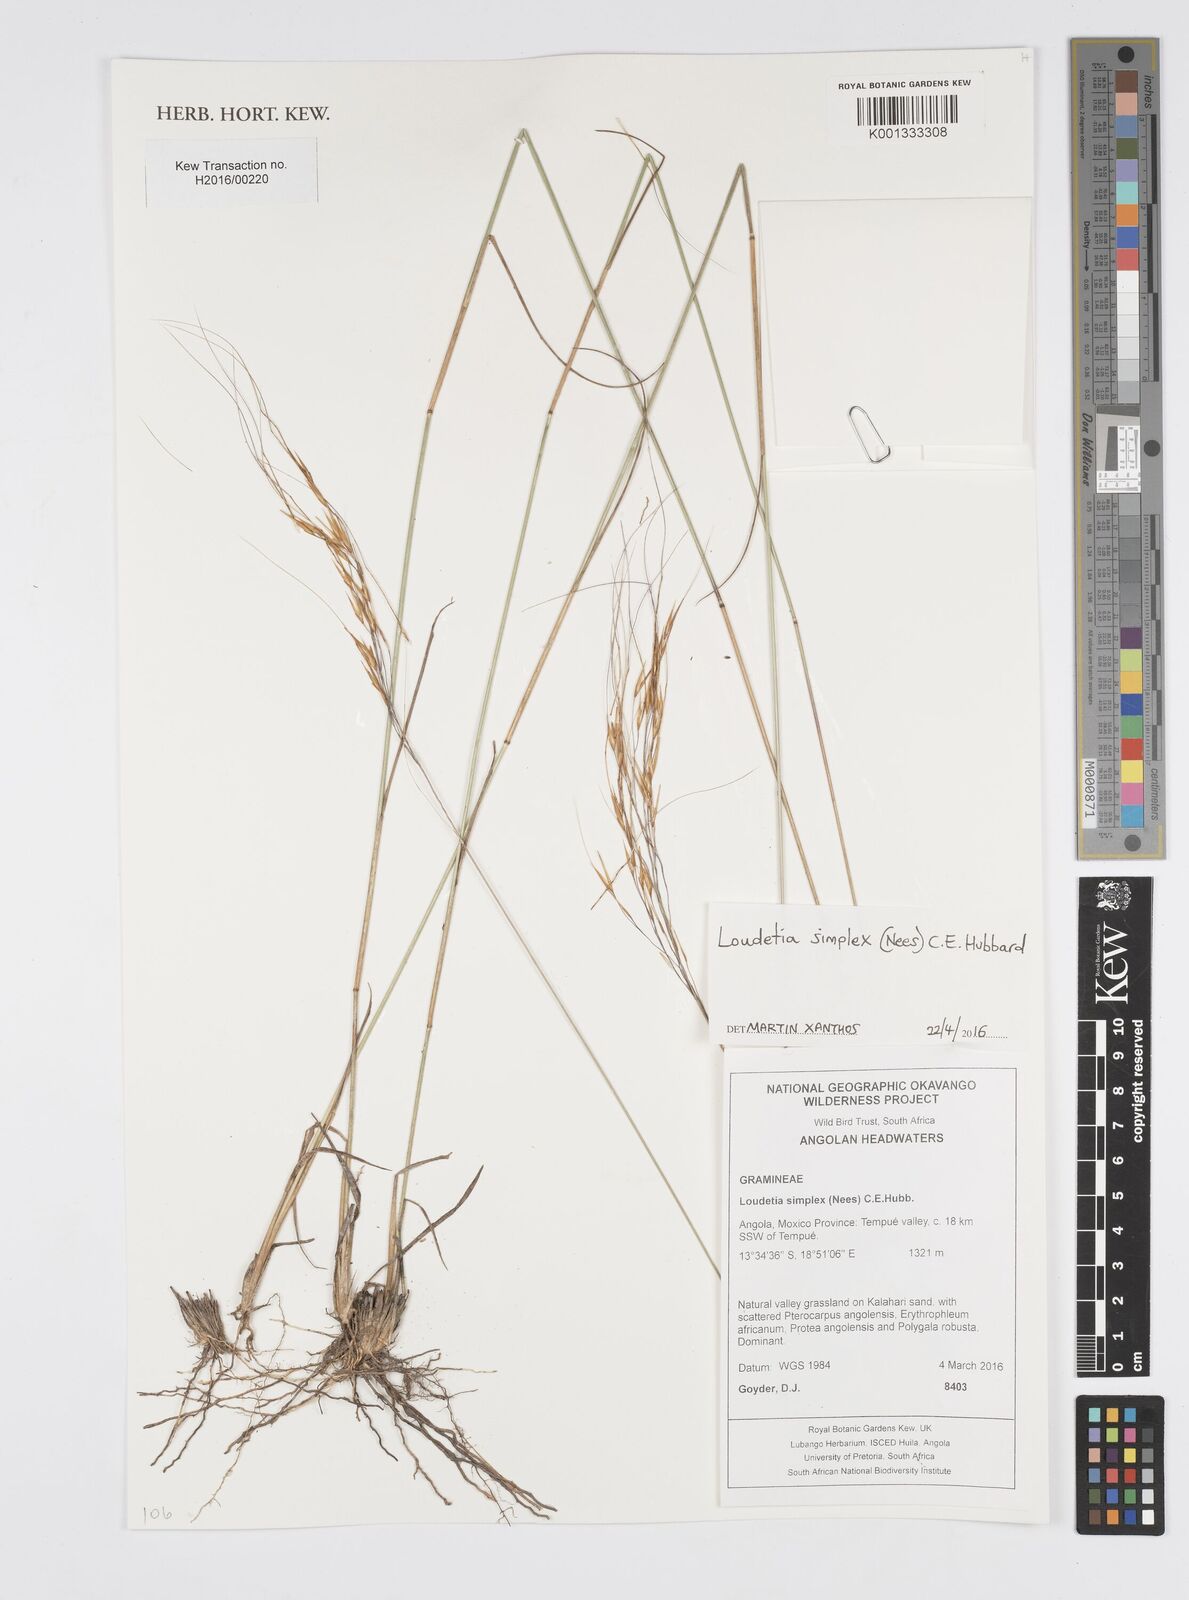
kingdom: Plantae
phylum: Tracheophyta
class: Liliopsida
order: Poales
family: Poaceae
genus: Loudetia
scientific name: Loudetia simplex
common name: Common russet grass
